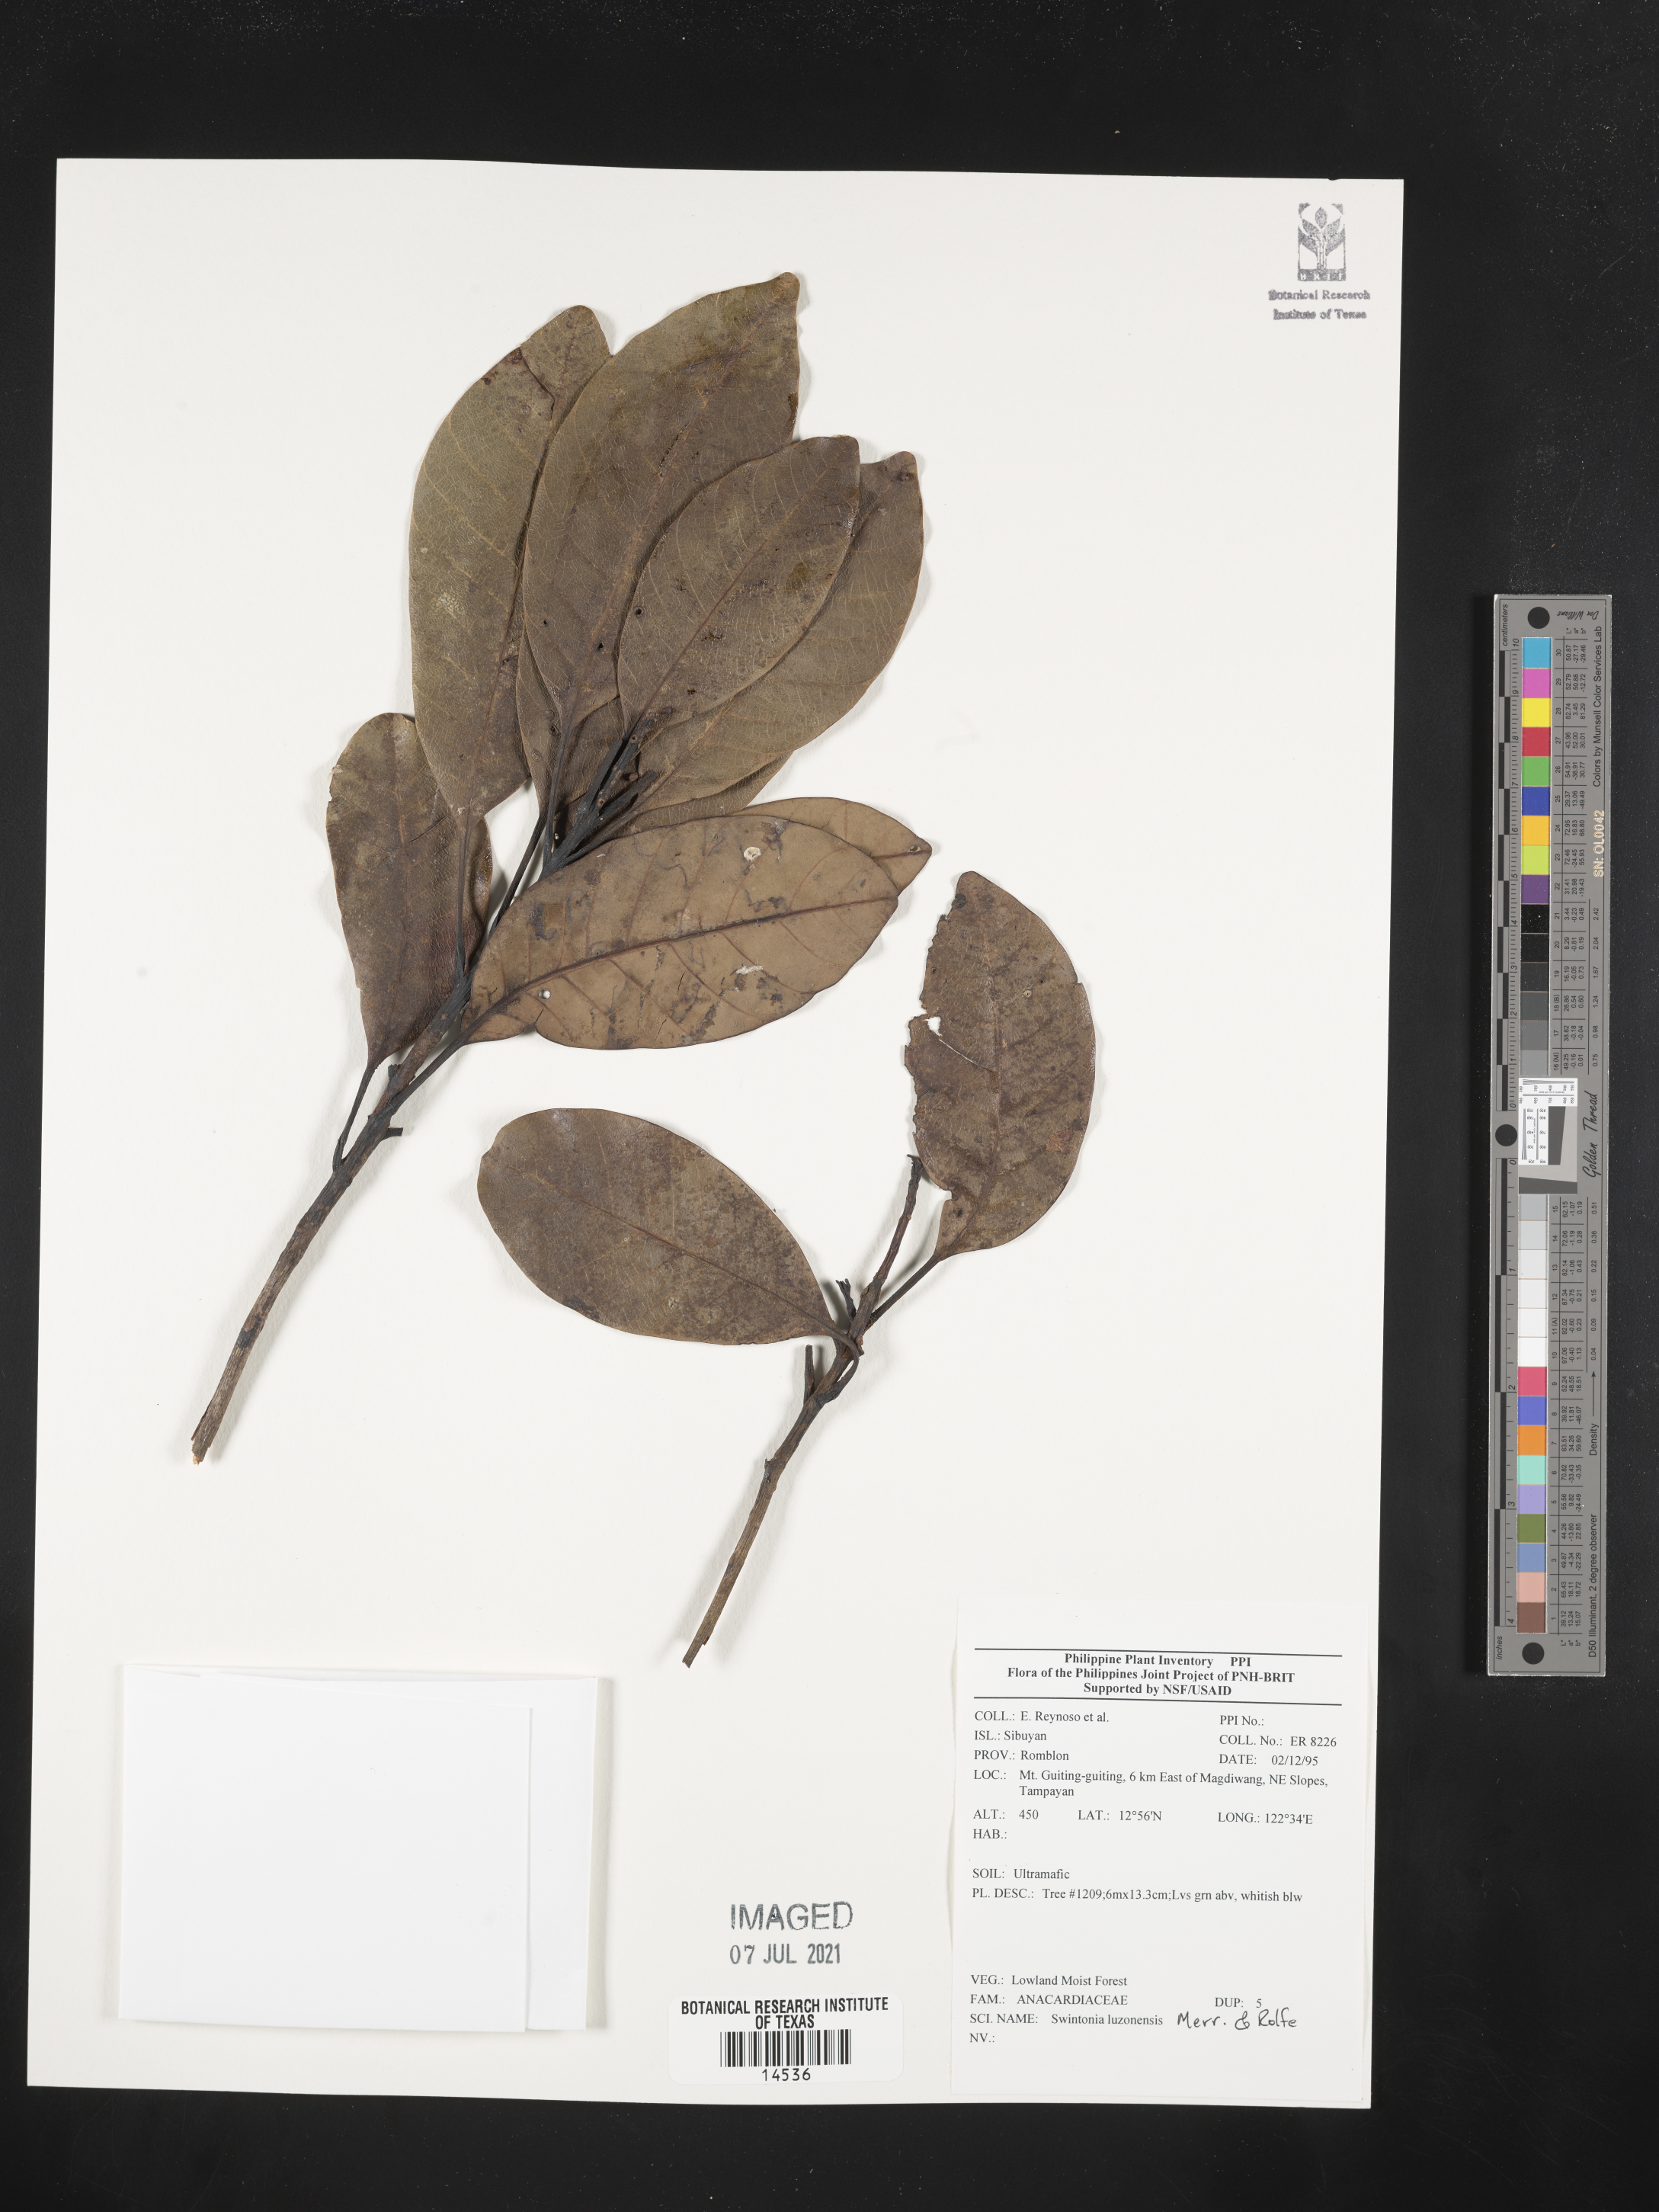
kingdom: Plantae
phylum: Tracheophyta
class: Magnoliopsida
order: Sapindales
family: Anacardiaceae
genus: Swintonia
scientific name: Swintonia acuta
